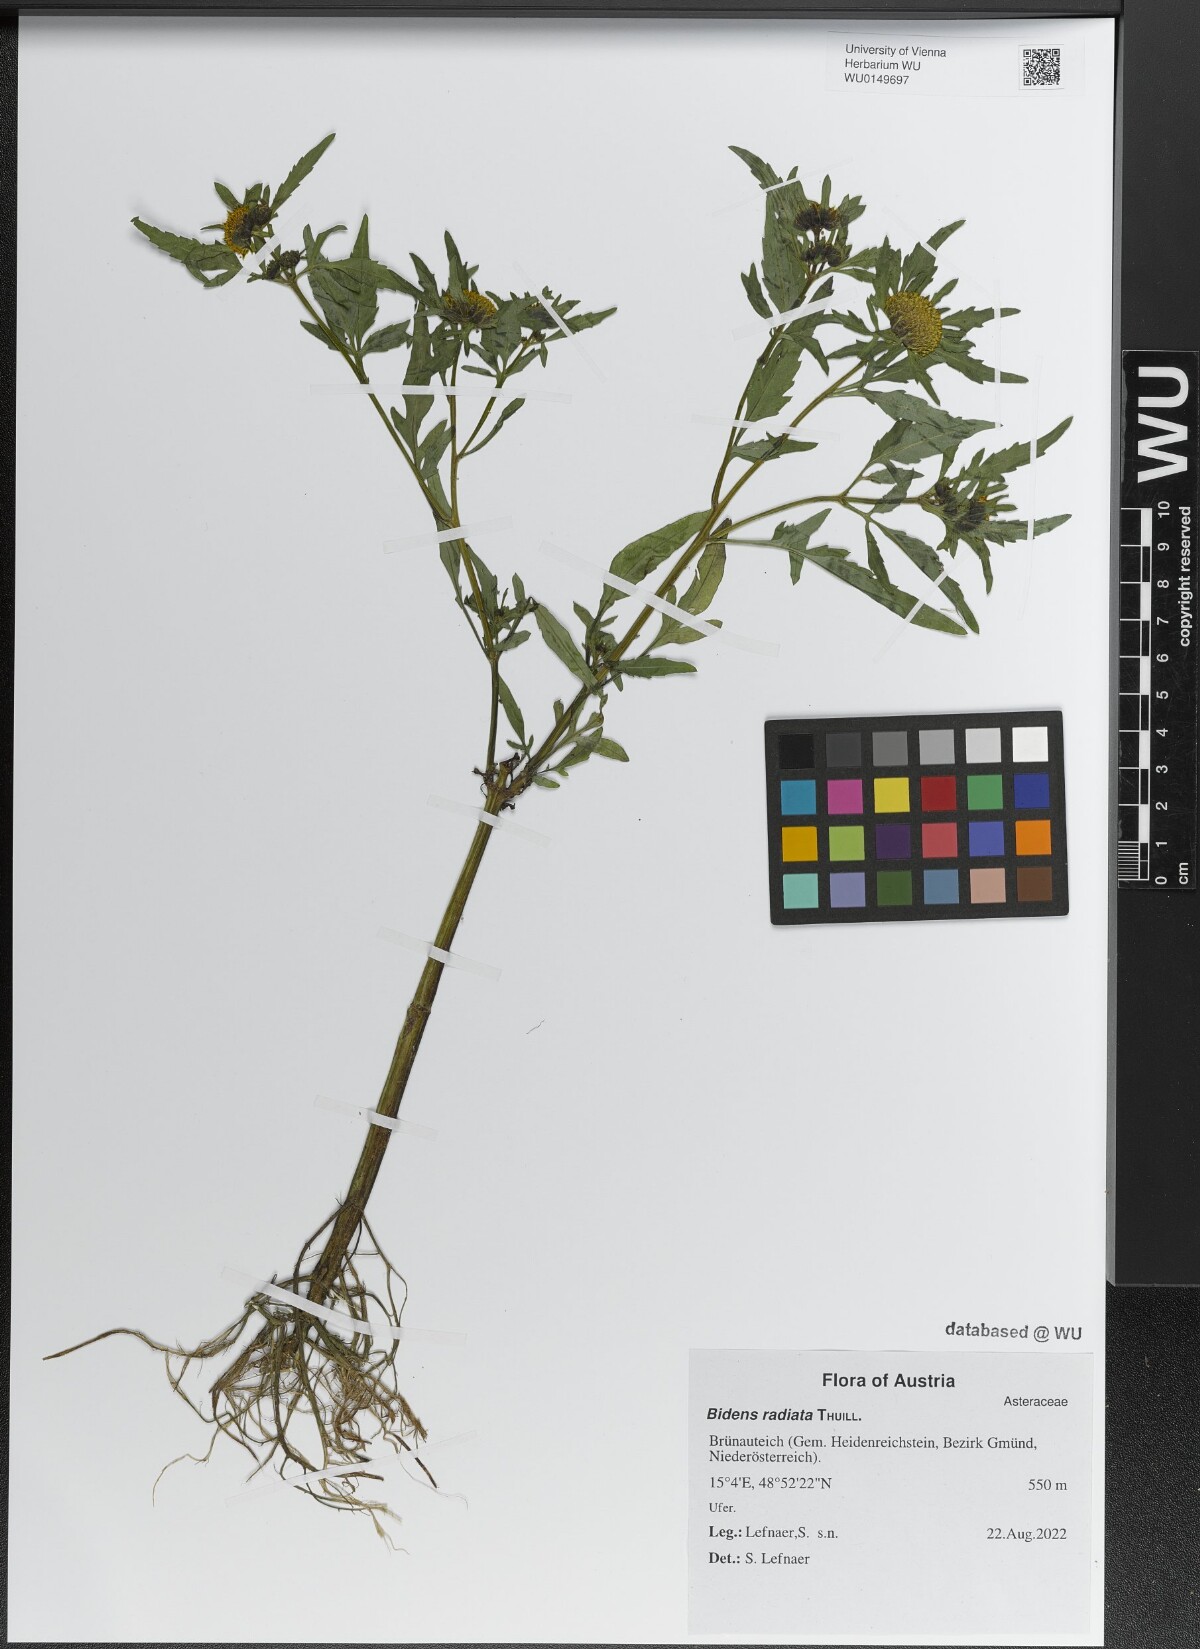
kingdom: Plantae
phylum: Tracheophyta
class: Magnoliopsida
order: Asterales
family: Asteraceae
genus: Bidens
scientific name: Bidens radiata
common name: Radiating bur-marigold
